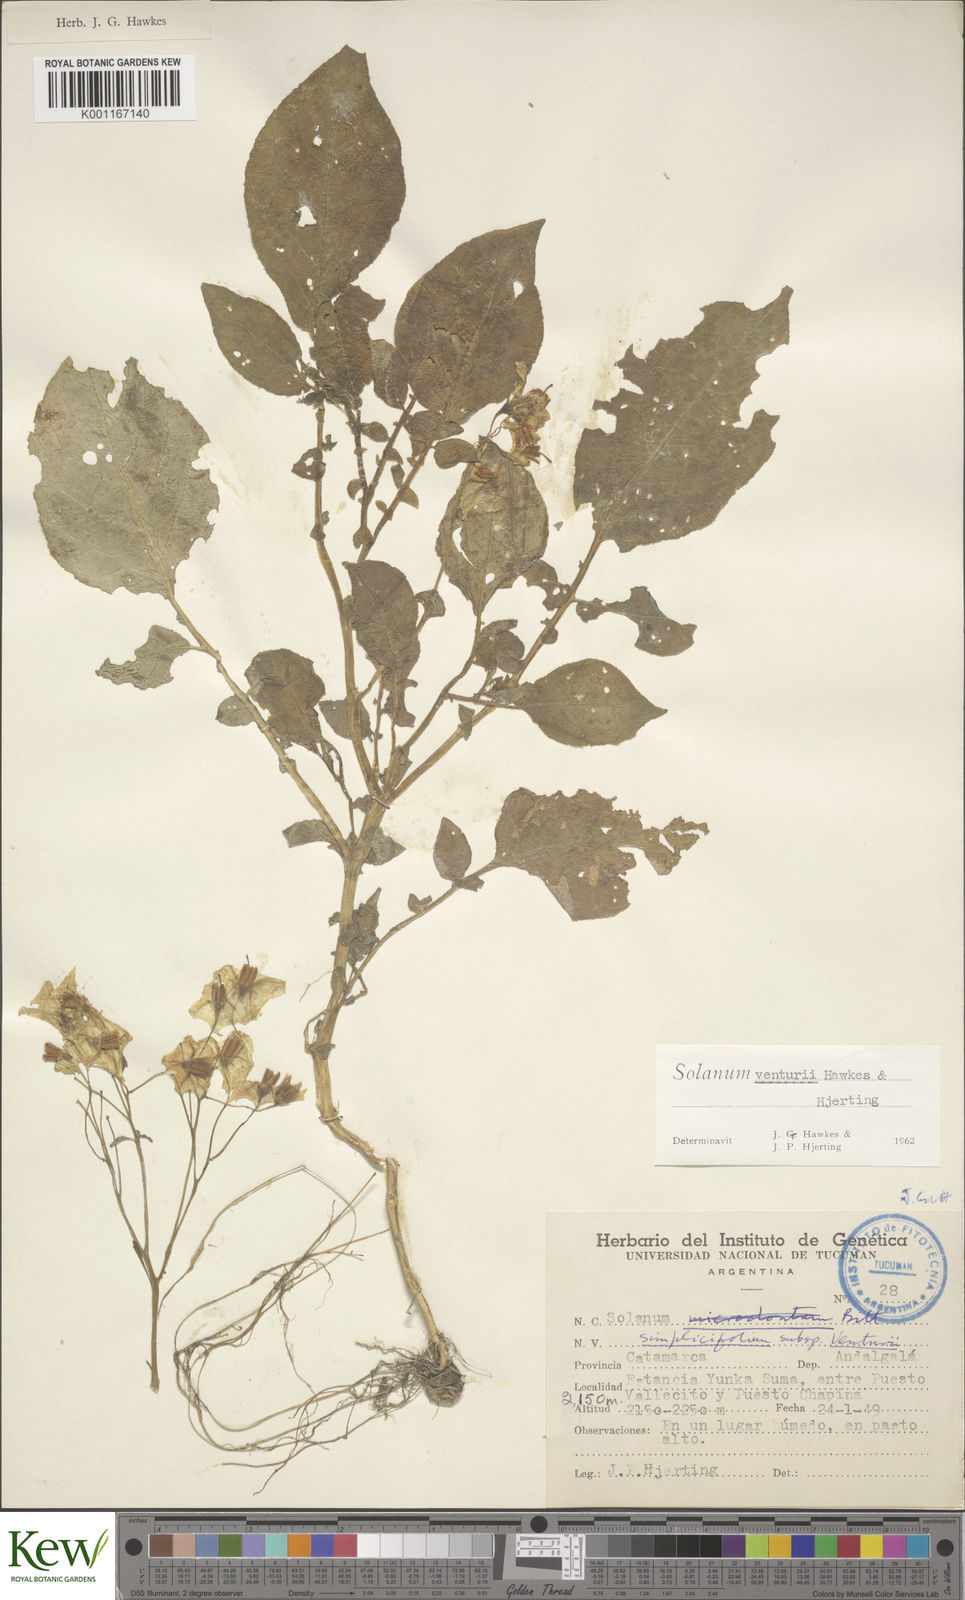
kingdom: Plantae
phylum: Tracheophyta
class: Magnoliopsida
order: Solanales
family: Solanaceae
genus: Solanum
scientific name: Solanum venturii
